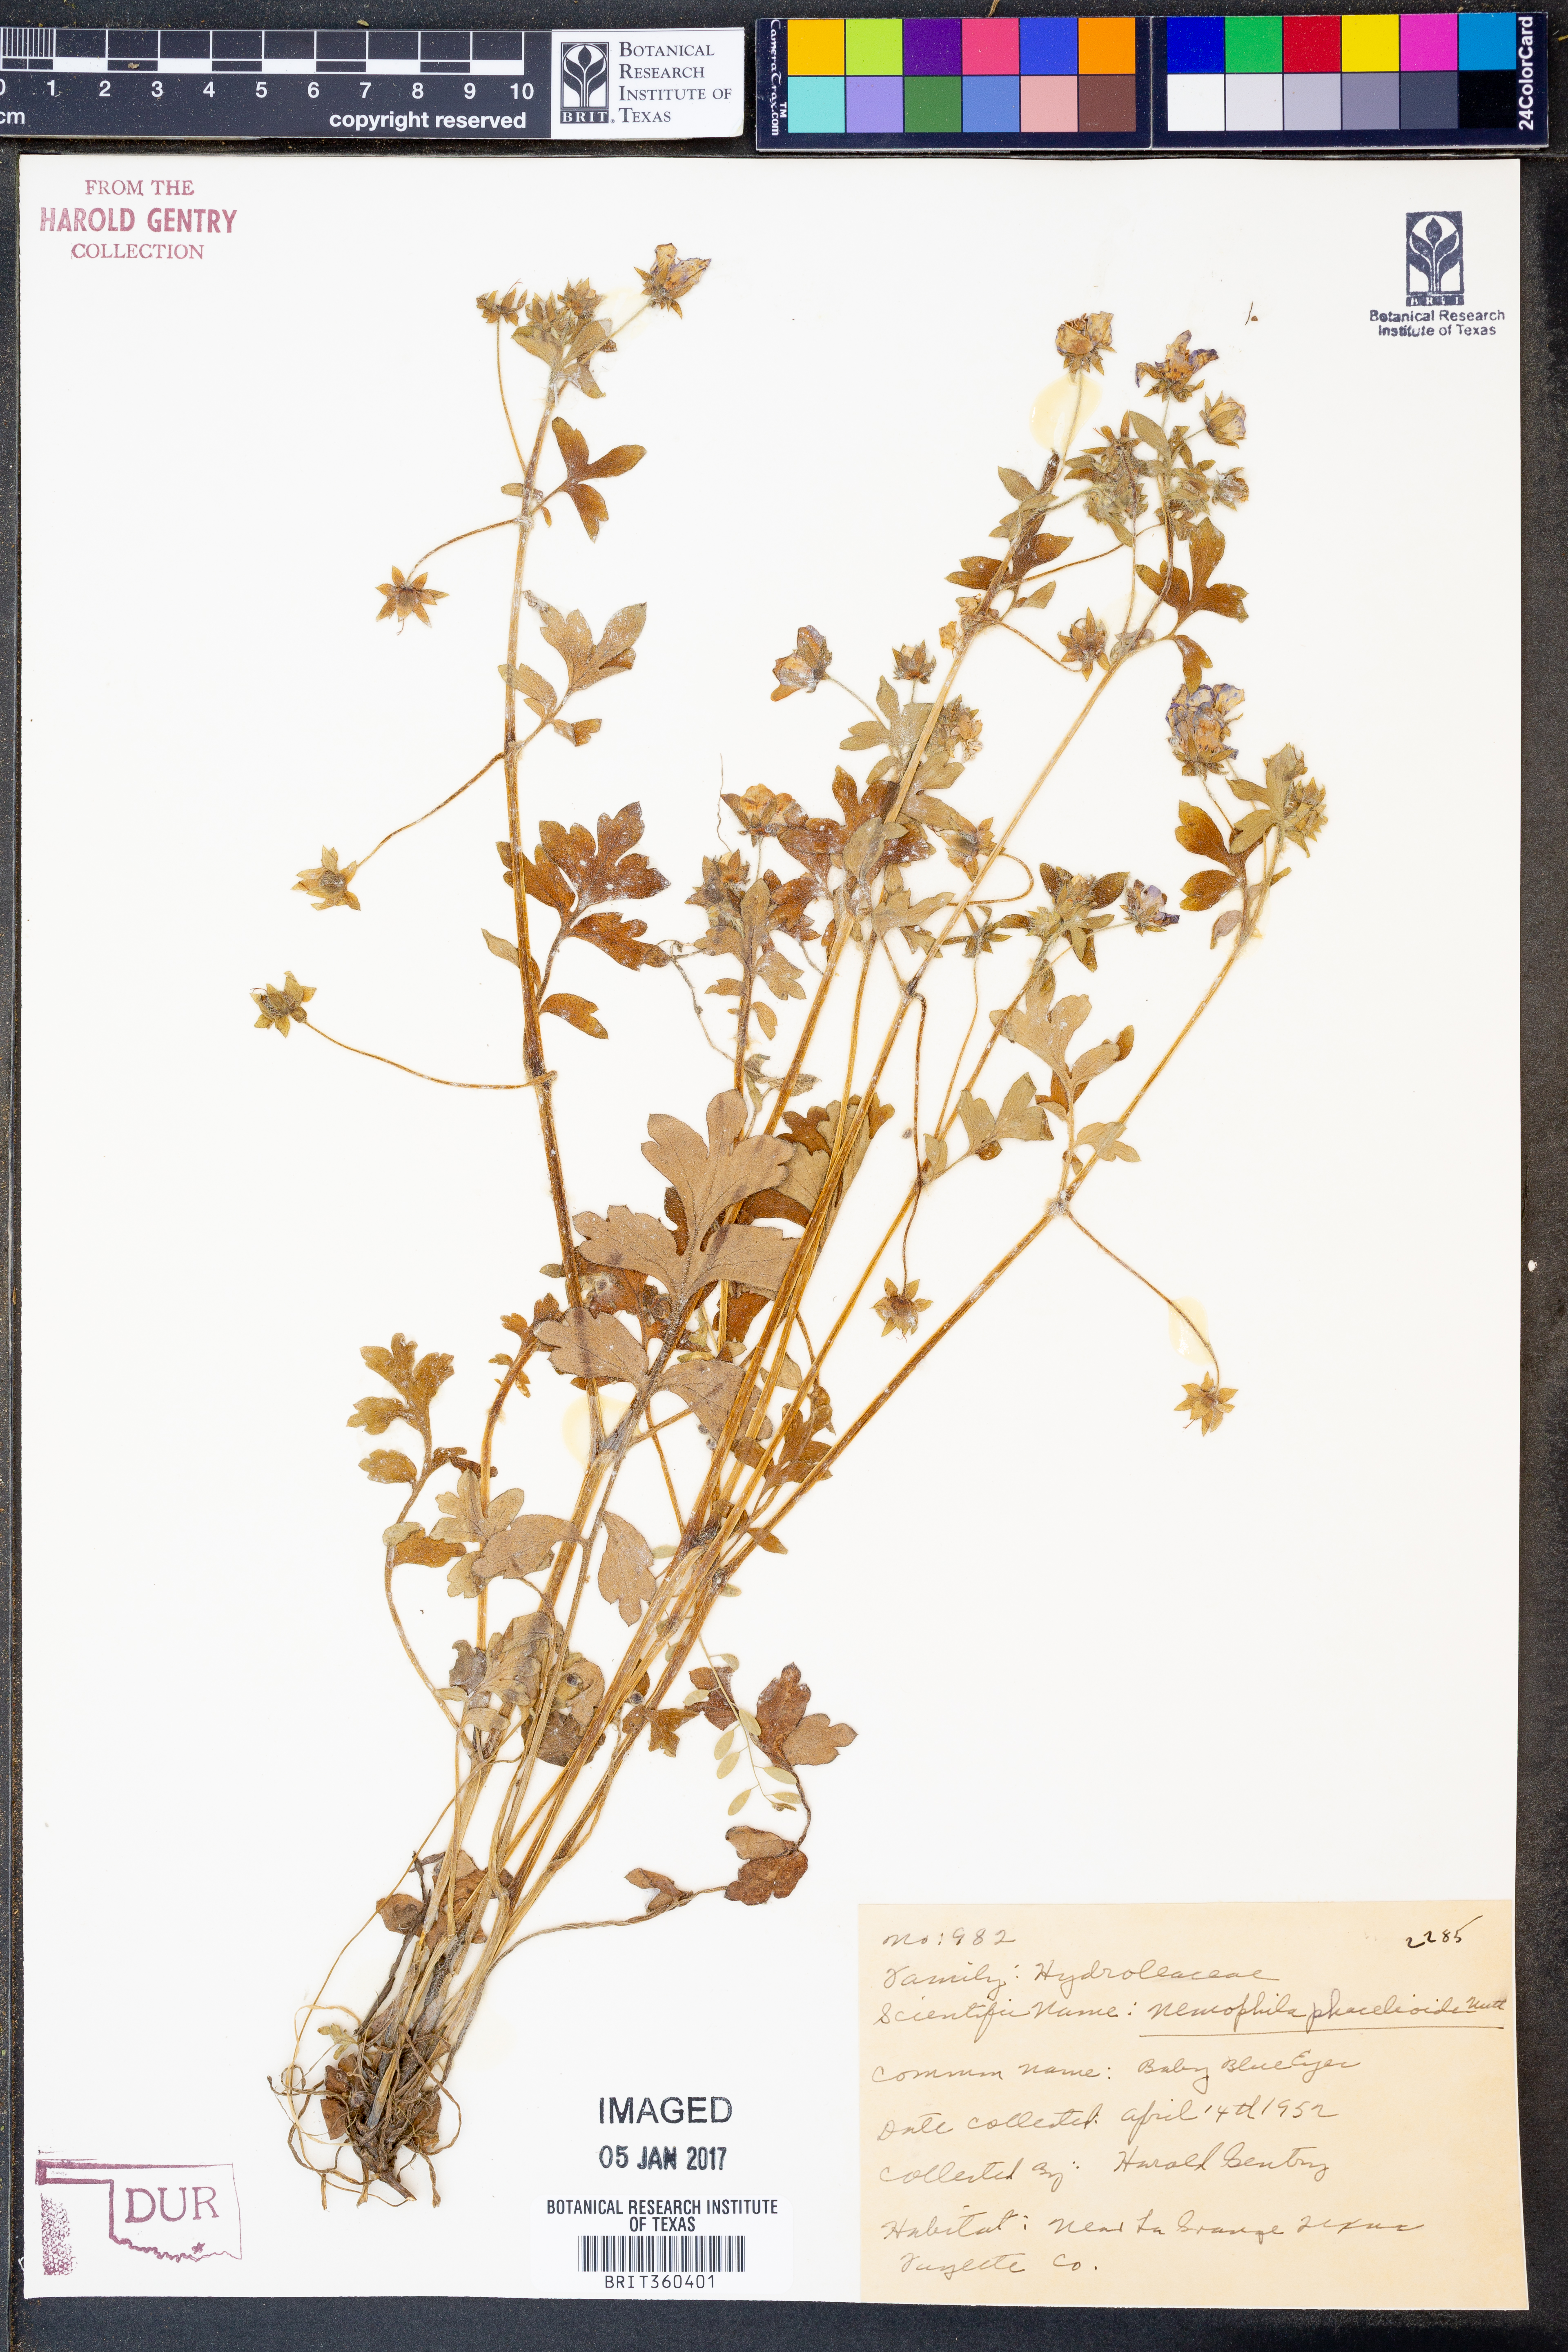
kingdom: Plantae
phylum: Tracheophyta
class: Magnoliopsida
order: Boraginales
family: Hydrophyllaceae
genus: Nemophila
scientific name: Nemophila phacelioides
